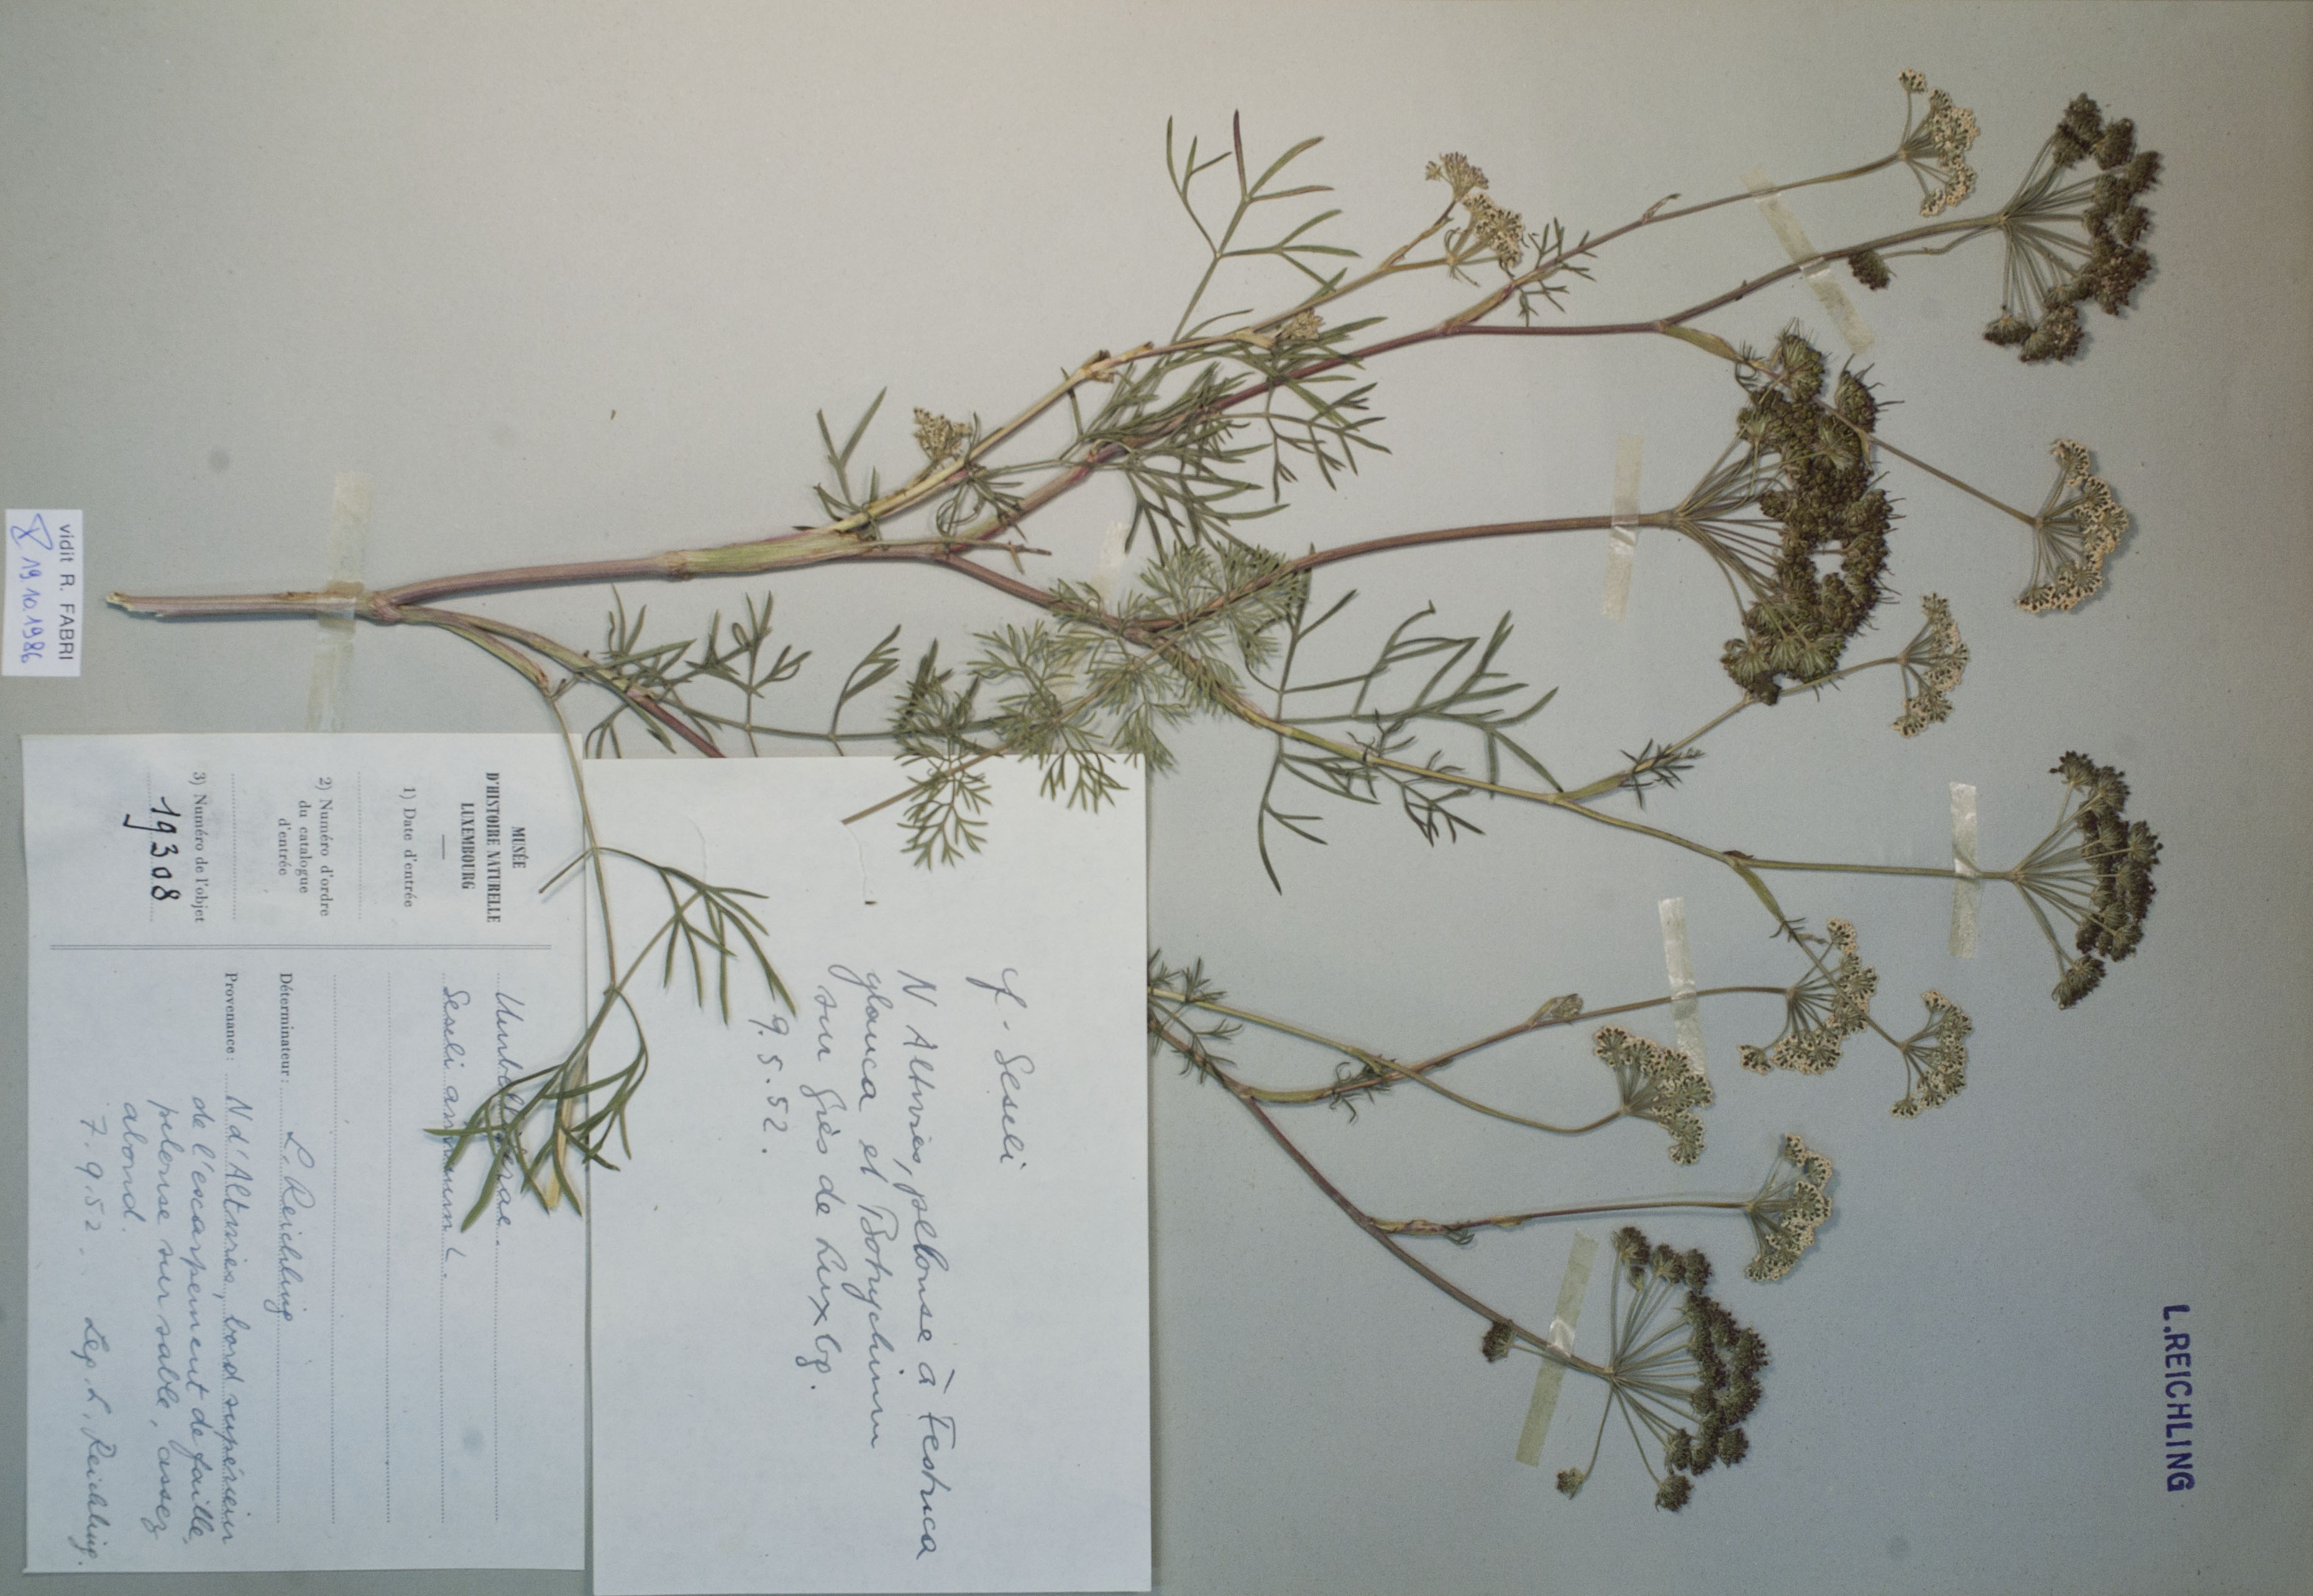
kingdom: Plantae
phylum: Tracheophyta
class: Magnoliopsida
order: Apiales
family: Apiaceae
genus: Seseli
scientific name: Seseli annuum
